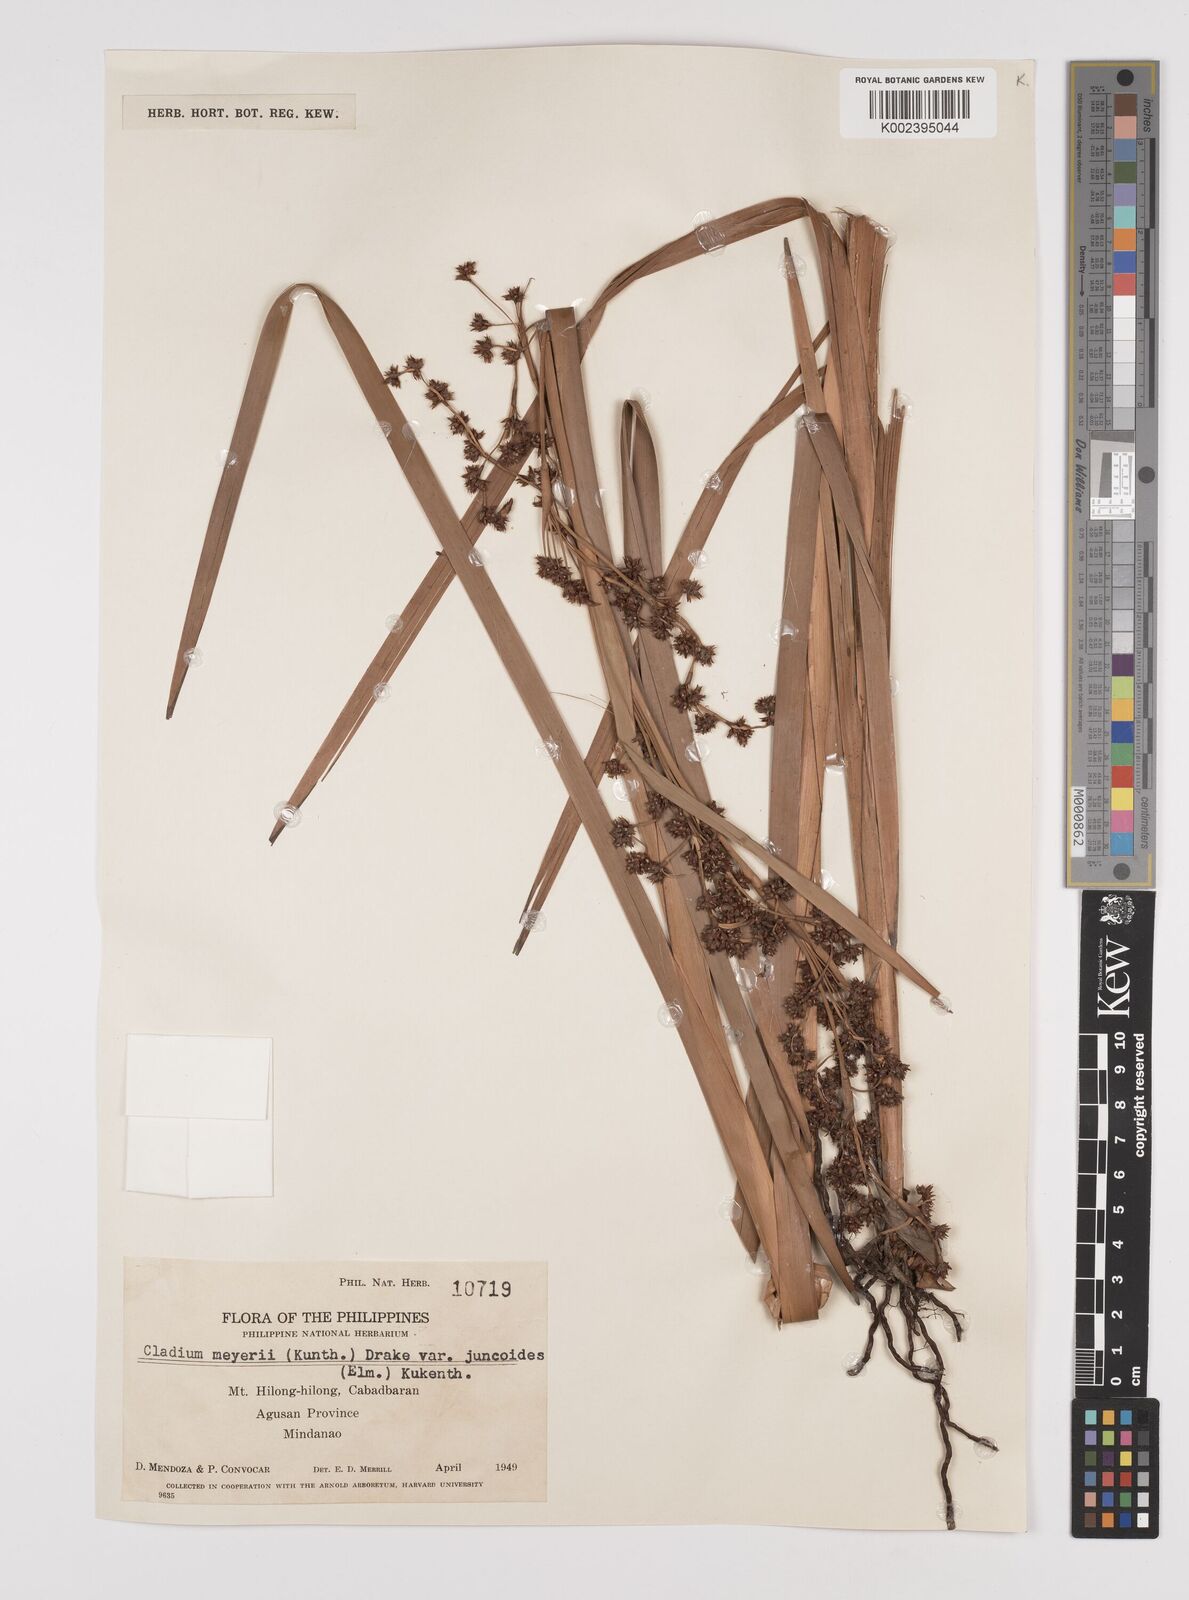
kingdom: Plantae
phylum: Tracheophyta
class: Liliopsida
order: Poales
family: Cyperaceae
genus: Machaerina
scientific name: Machaerina glomerata
